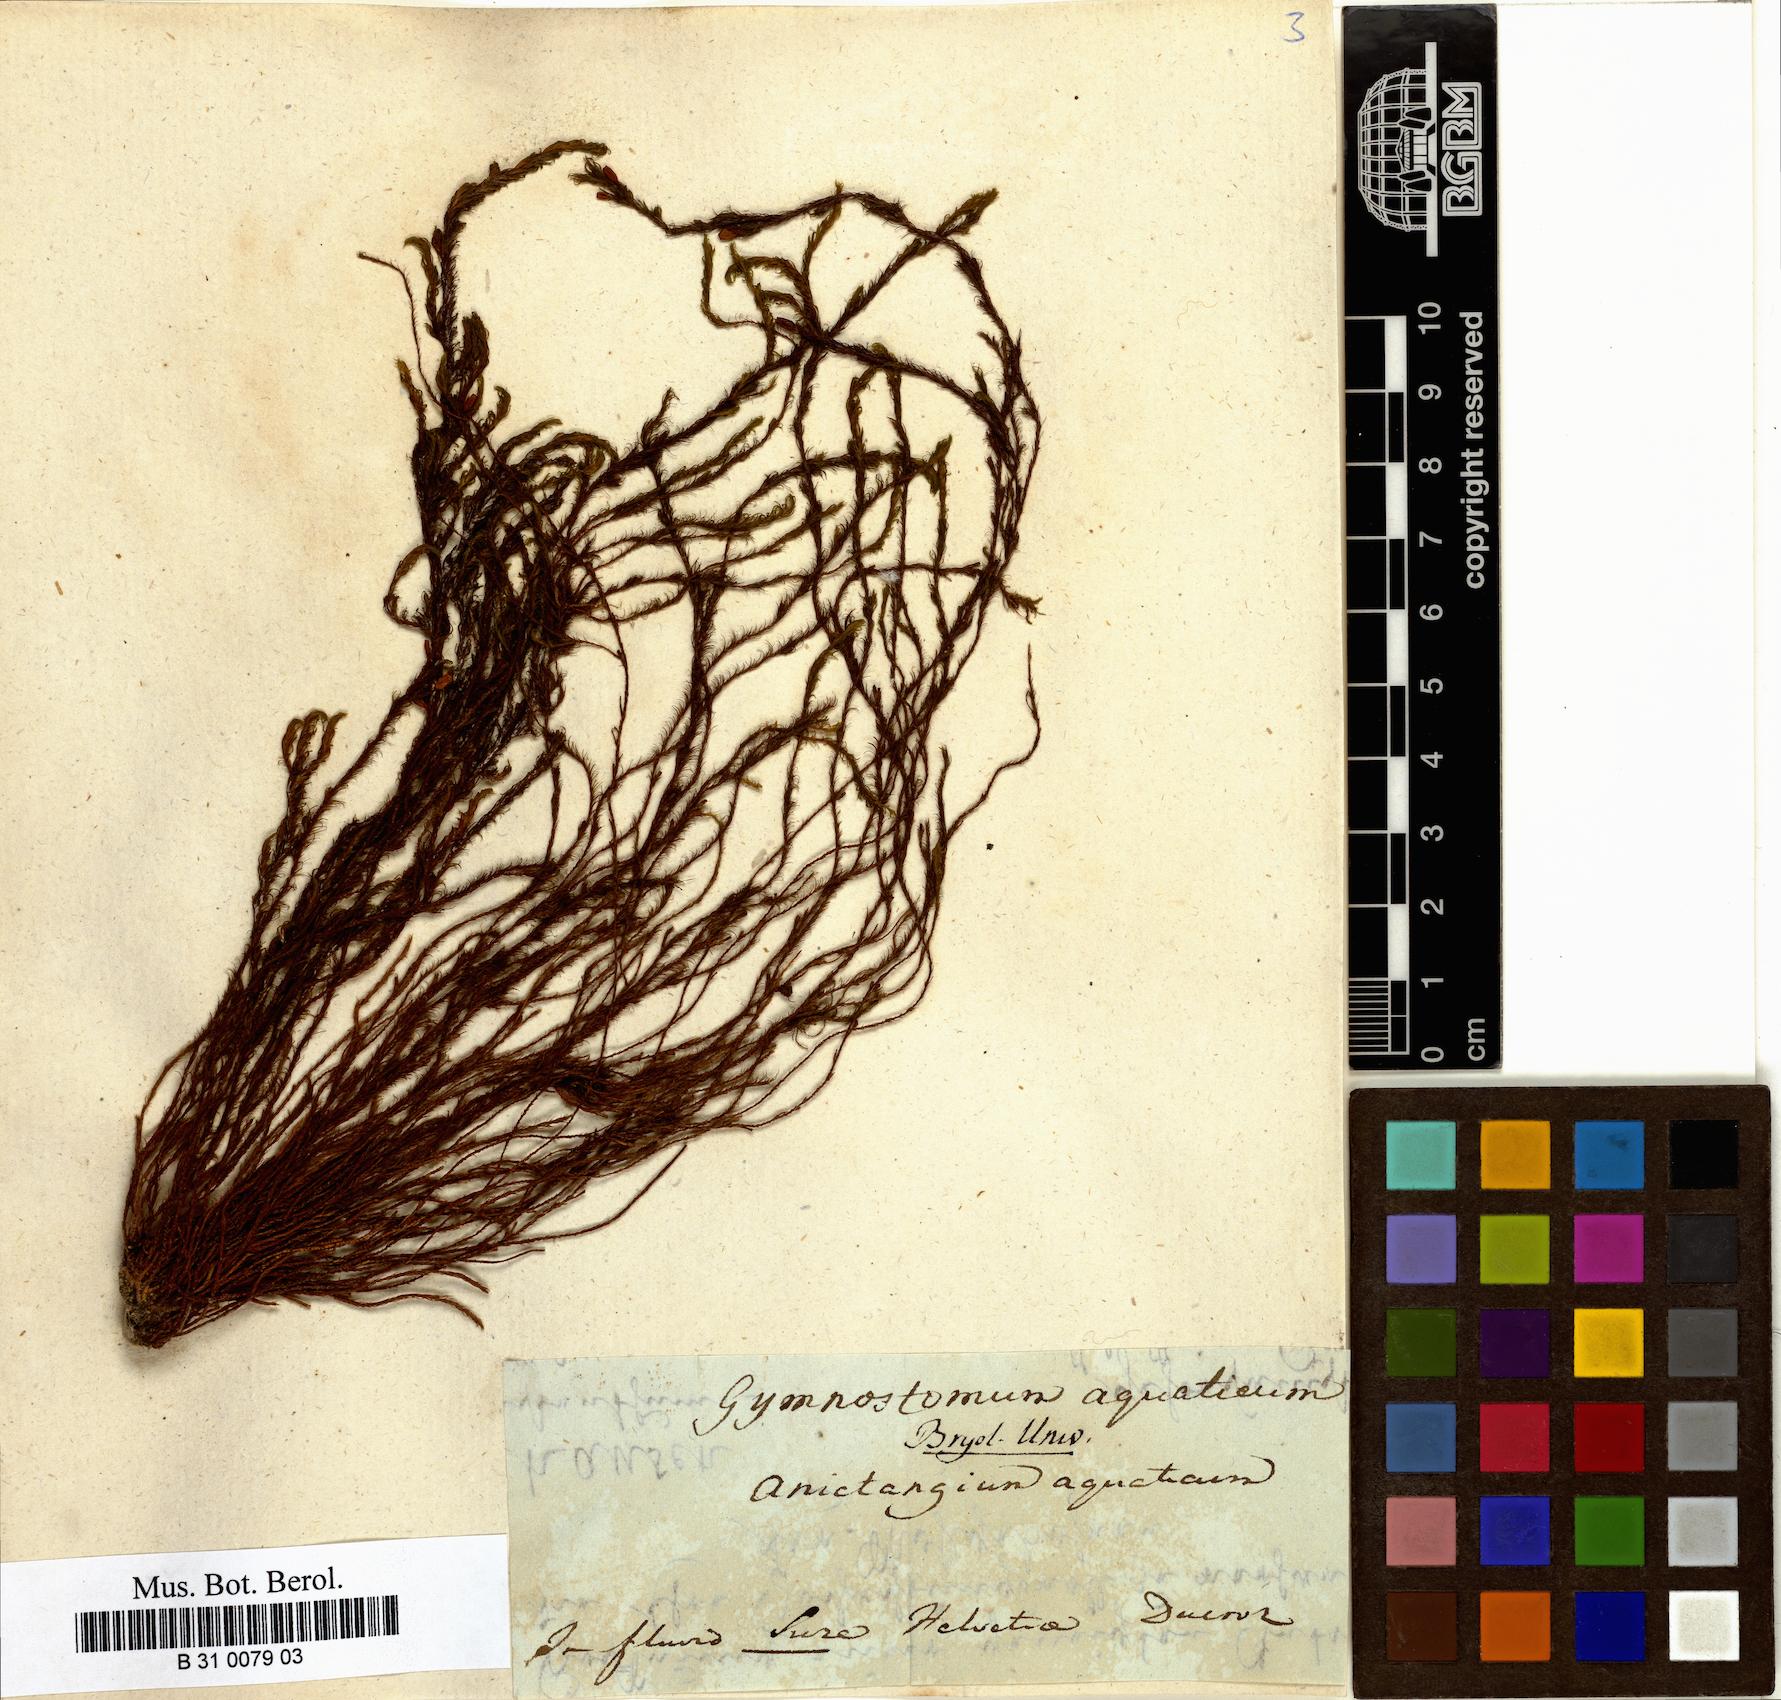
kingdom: Plantae
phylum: Bryophyta
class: Bryopsida
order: Pottiales
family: Pottiaceae
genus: Cinclidotus
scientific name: Cinclidotus aquaticus
